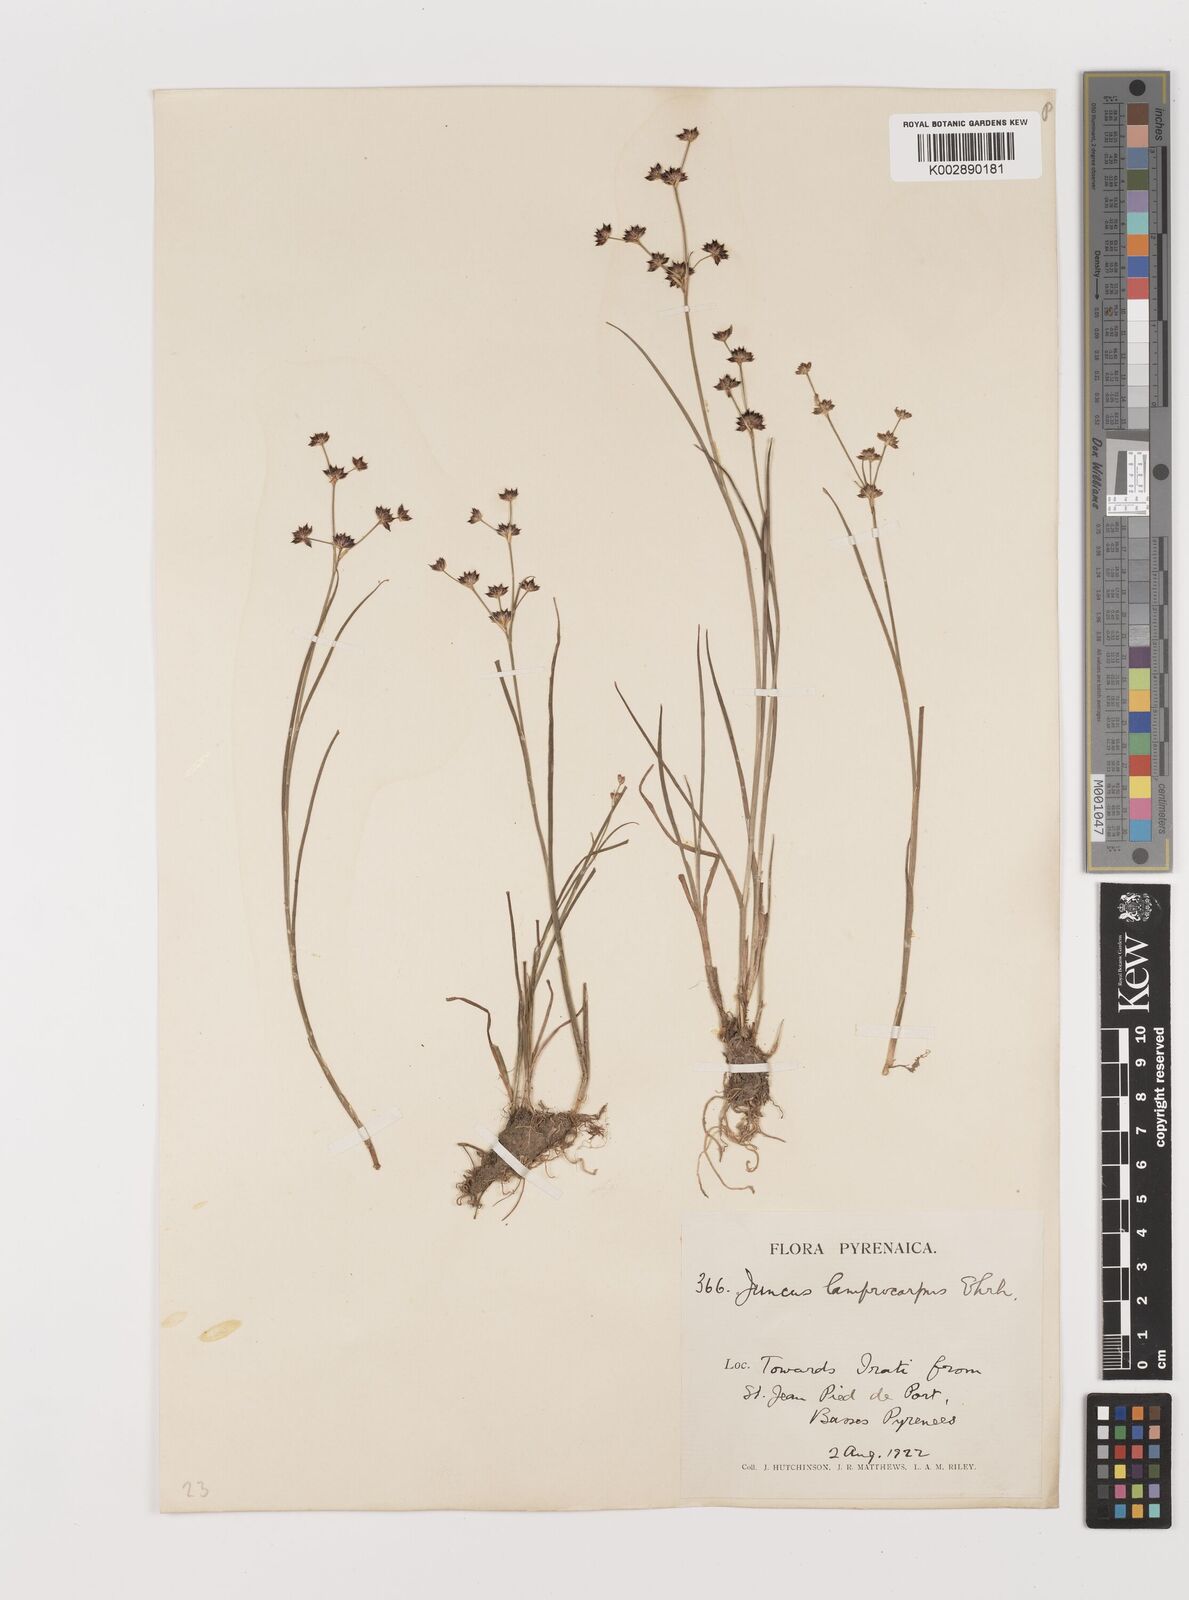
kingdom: Plantae
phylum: Tracheophyta
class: Liliopsida
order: Poales
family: Juncaceae
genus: Juncus
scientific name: Juncus articulatus
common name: Jointed rush
